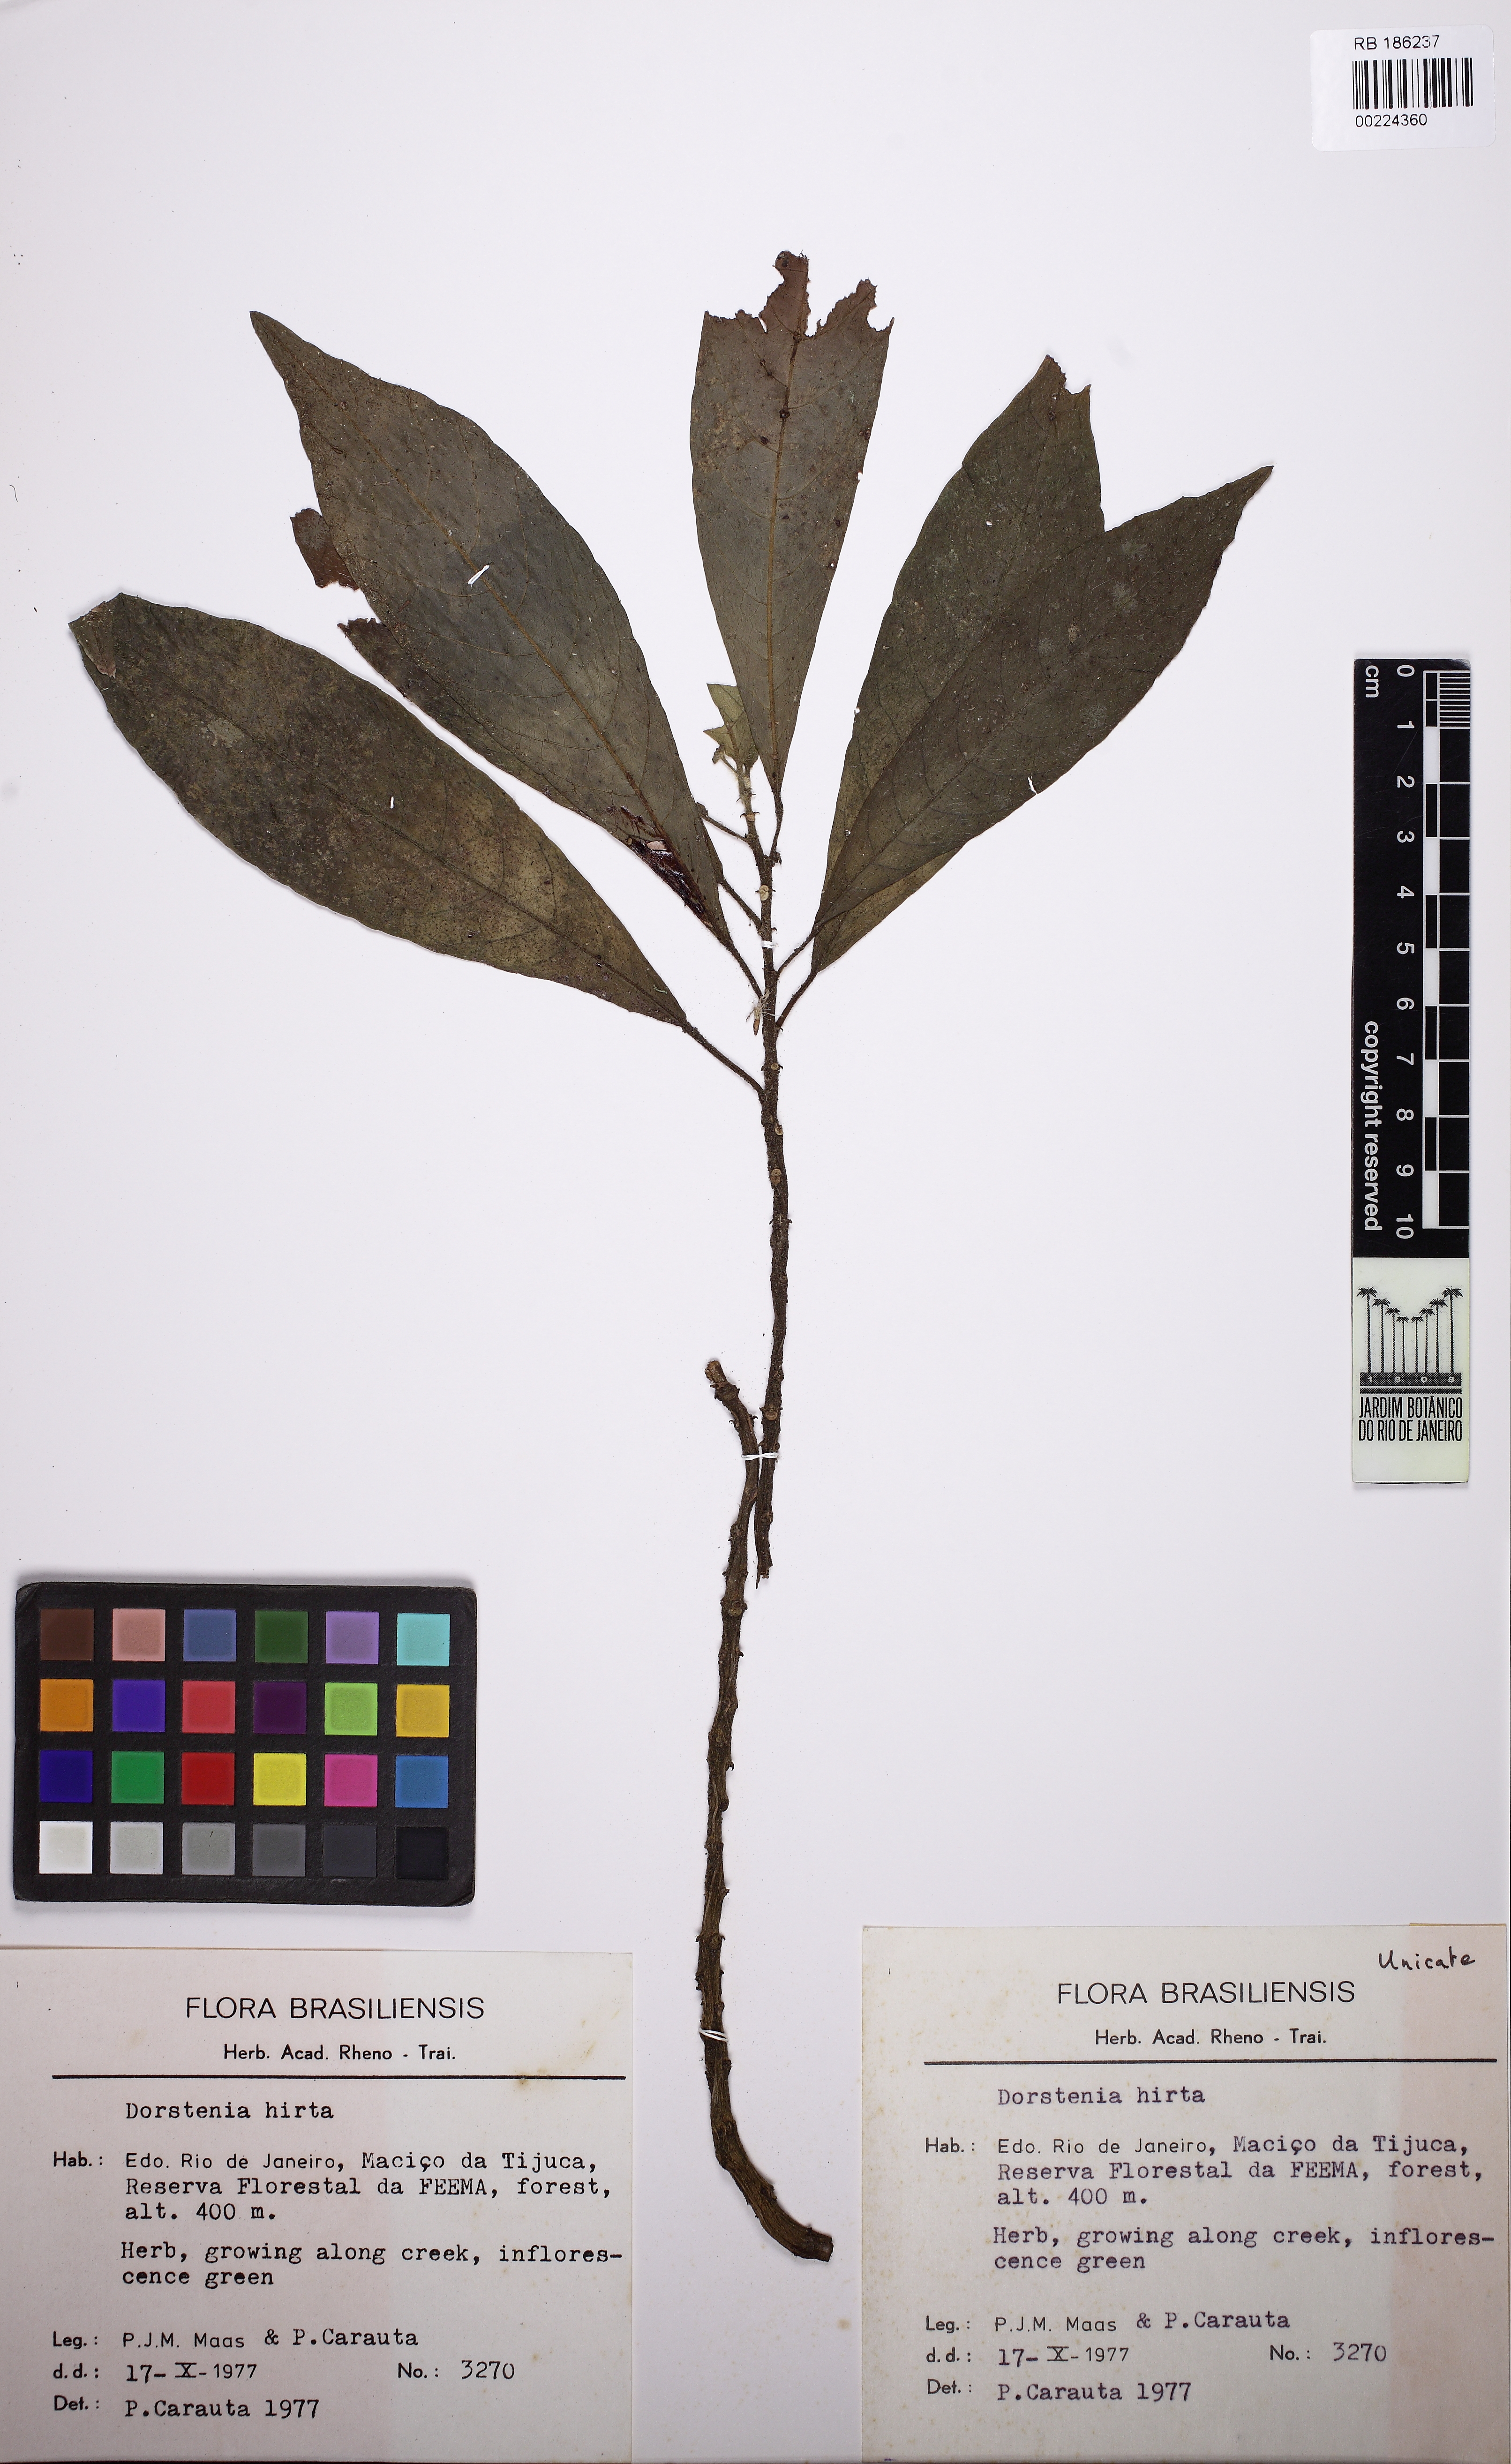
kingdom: Plantae
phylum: Tracheophyta
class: Magnoliopsida
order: Rosales
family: Moraceae
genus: Dorstenia
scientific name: Dorstenia hirta
